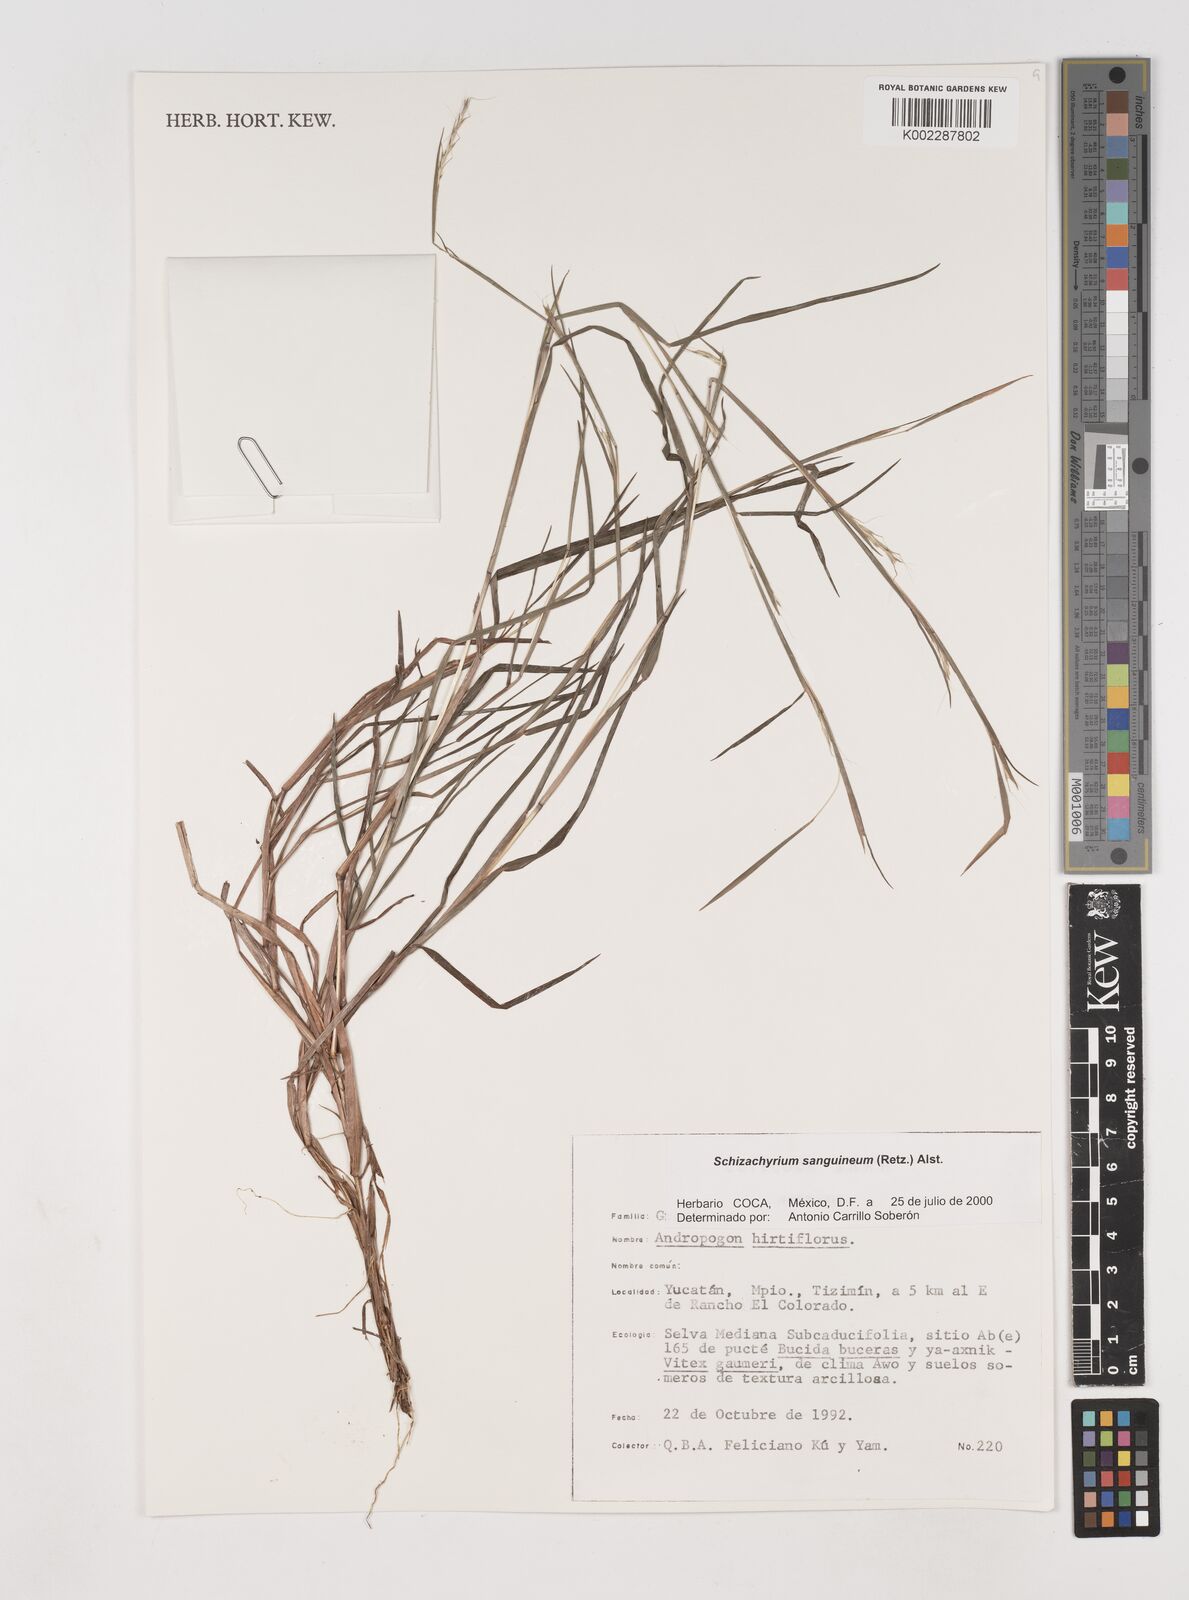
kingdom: Plantae
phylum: Tracheophyta
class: Liliopsida
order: Poales
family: Poaceae
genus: Schizachyrium
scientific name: Schizachyrium sanguineum
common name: Crimson bluestem
